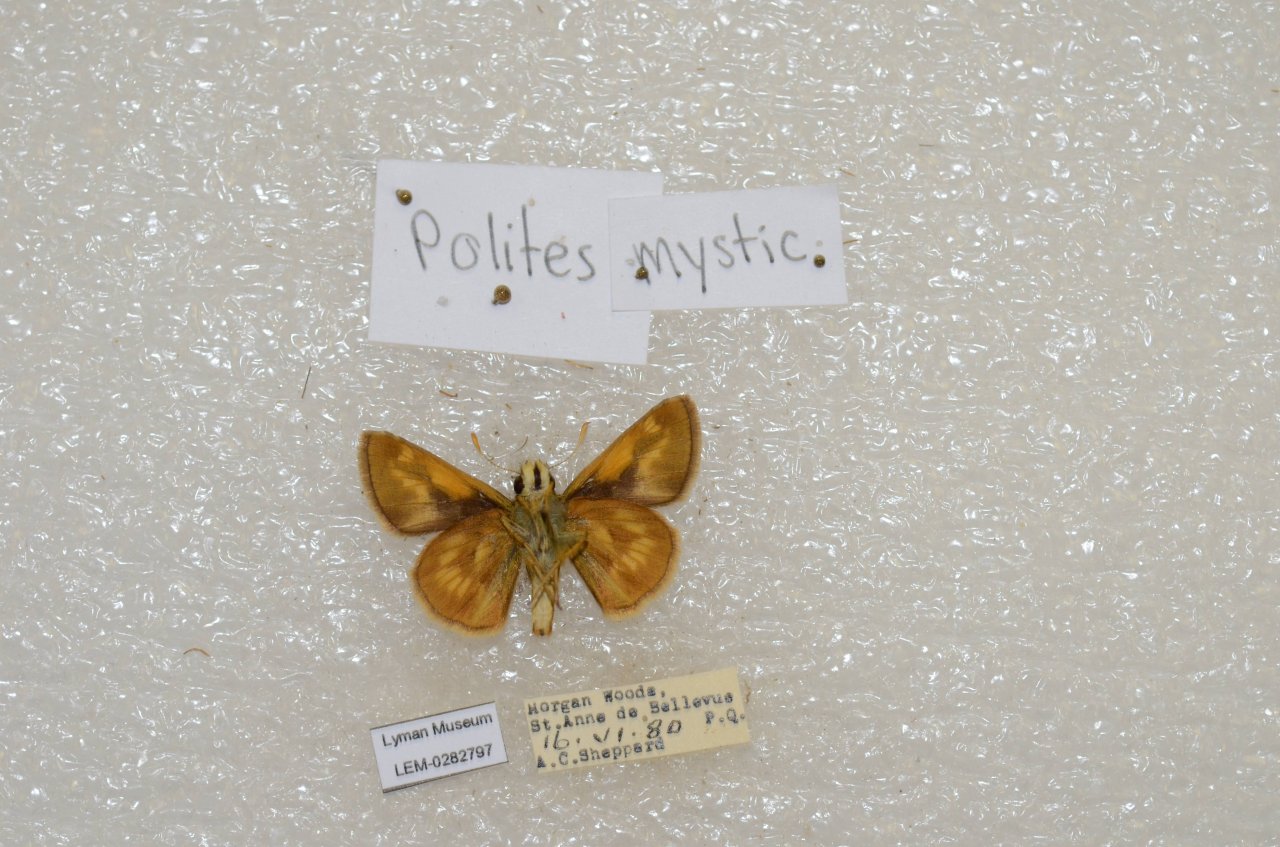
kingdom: Animalia
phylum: Arthropoda
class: Insecta
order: Lepidoptera
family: Hesperiidae
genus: Polites
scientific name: Polites
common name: Long Dash Skipper
